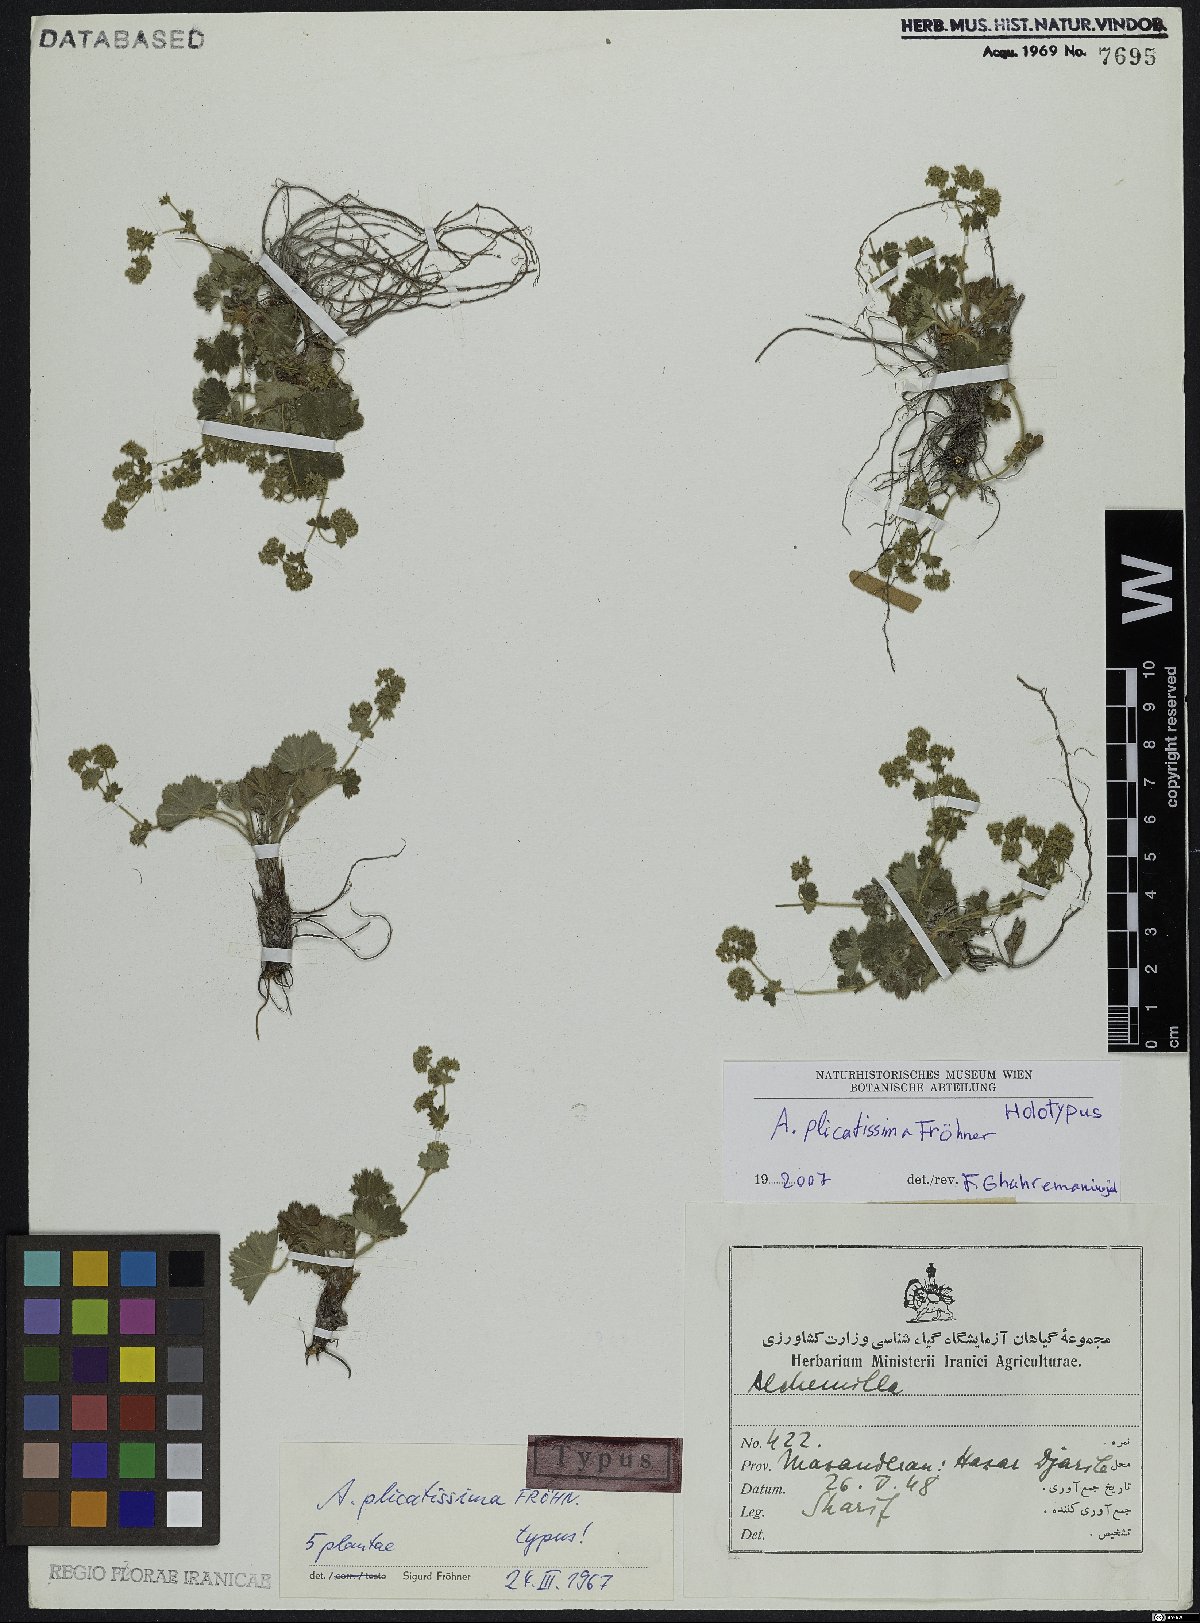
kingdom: Plantae
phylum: Tracheophyta
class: Magnoliopsida
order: Rosales
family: Rosaceae
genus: Alchemilla
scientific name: Alchemilla plicatissima
